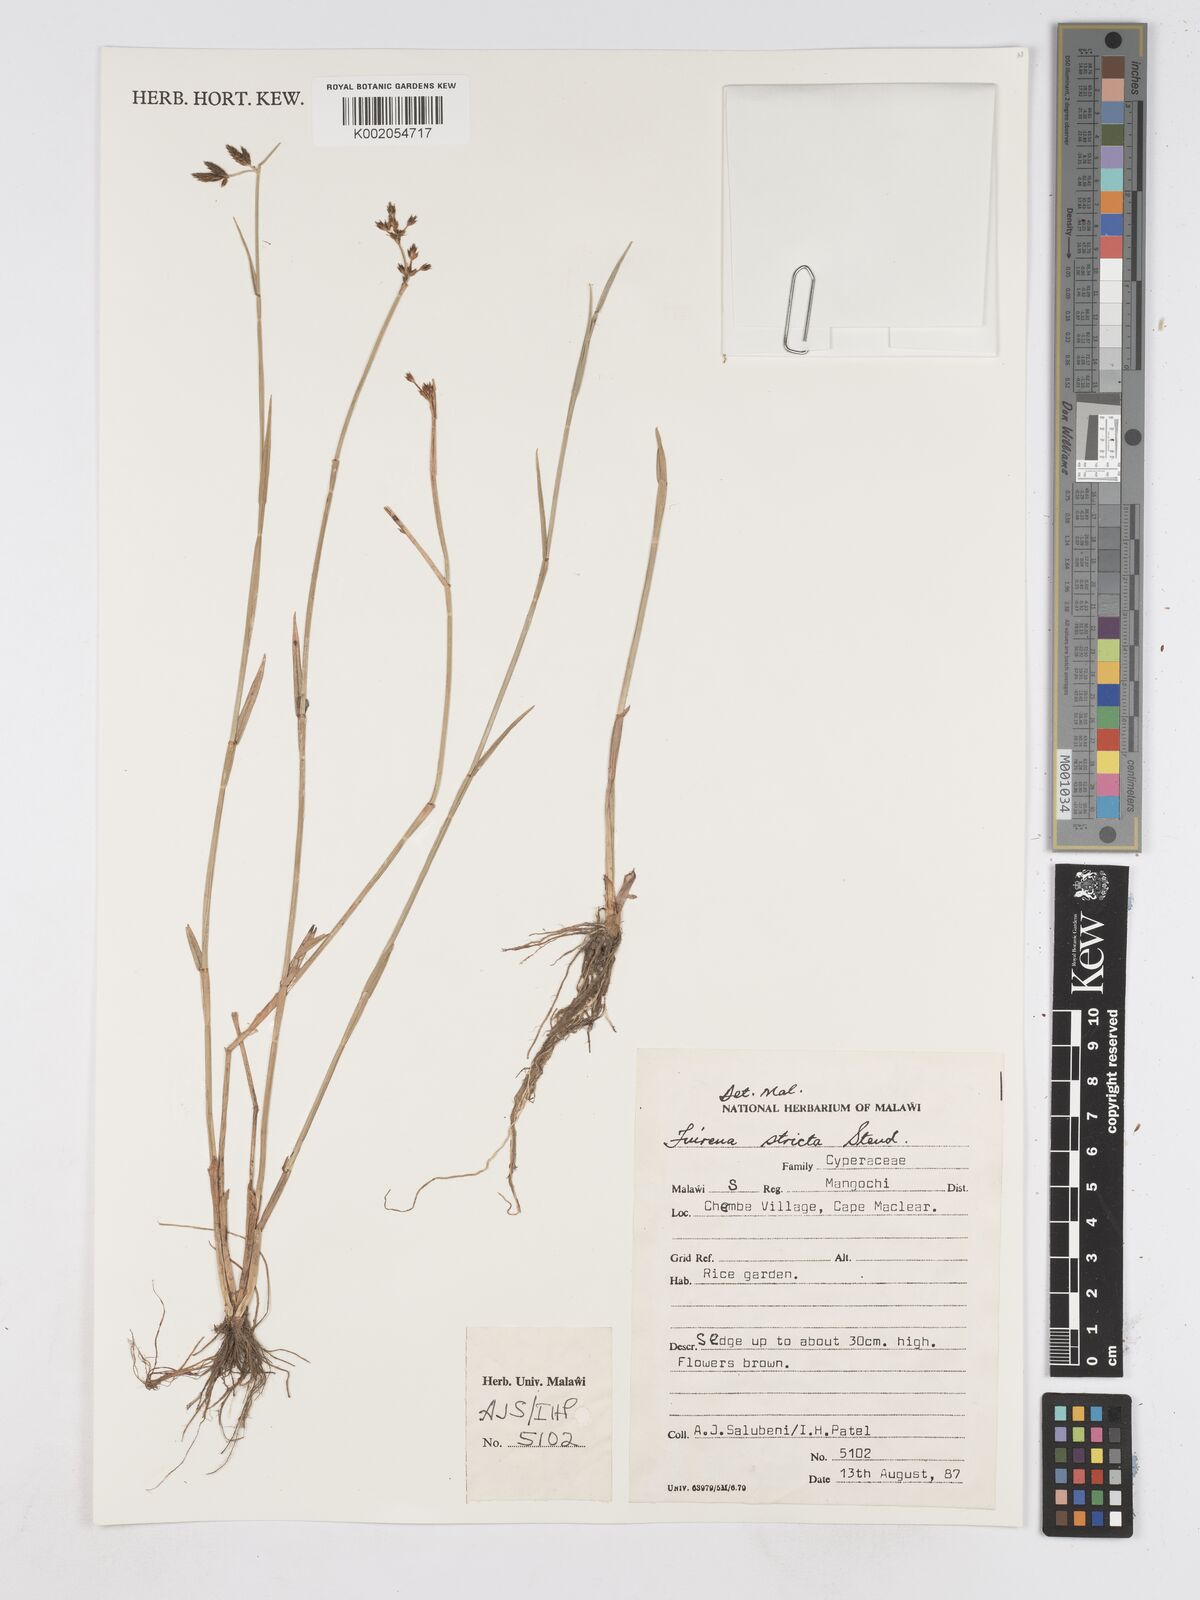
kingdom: Plantae
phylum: Tracheophyta
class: Liliopsida
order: Poales
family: Cyperaceae
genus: Fuirena
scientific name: Fuirena stricta
